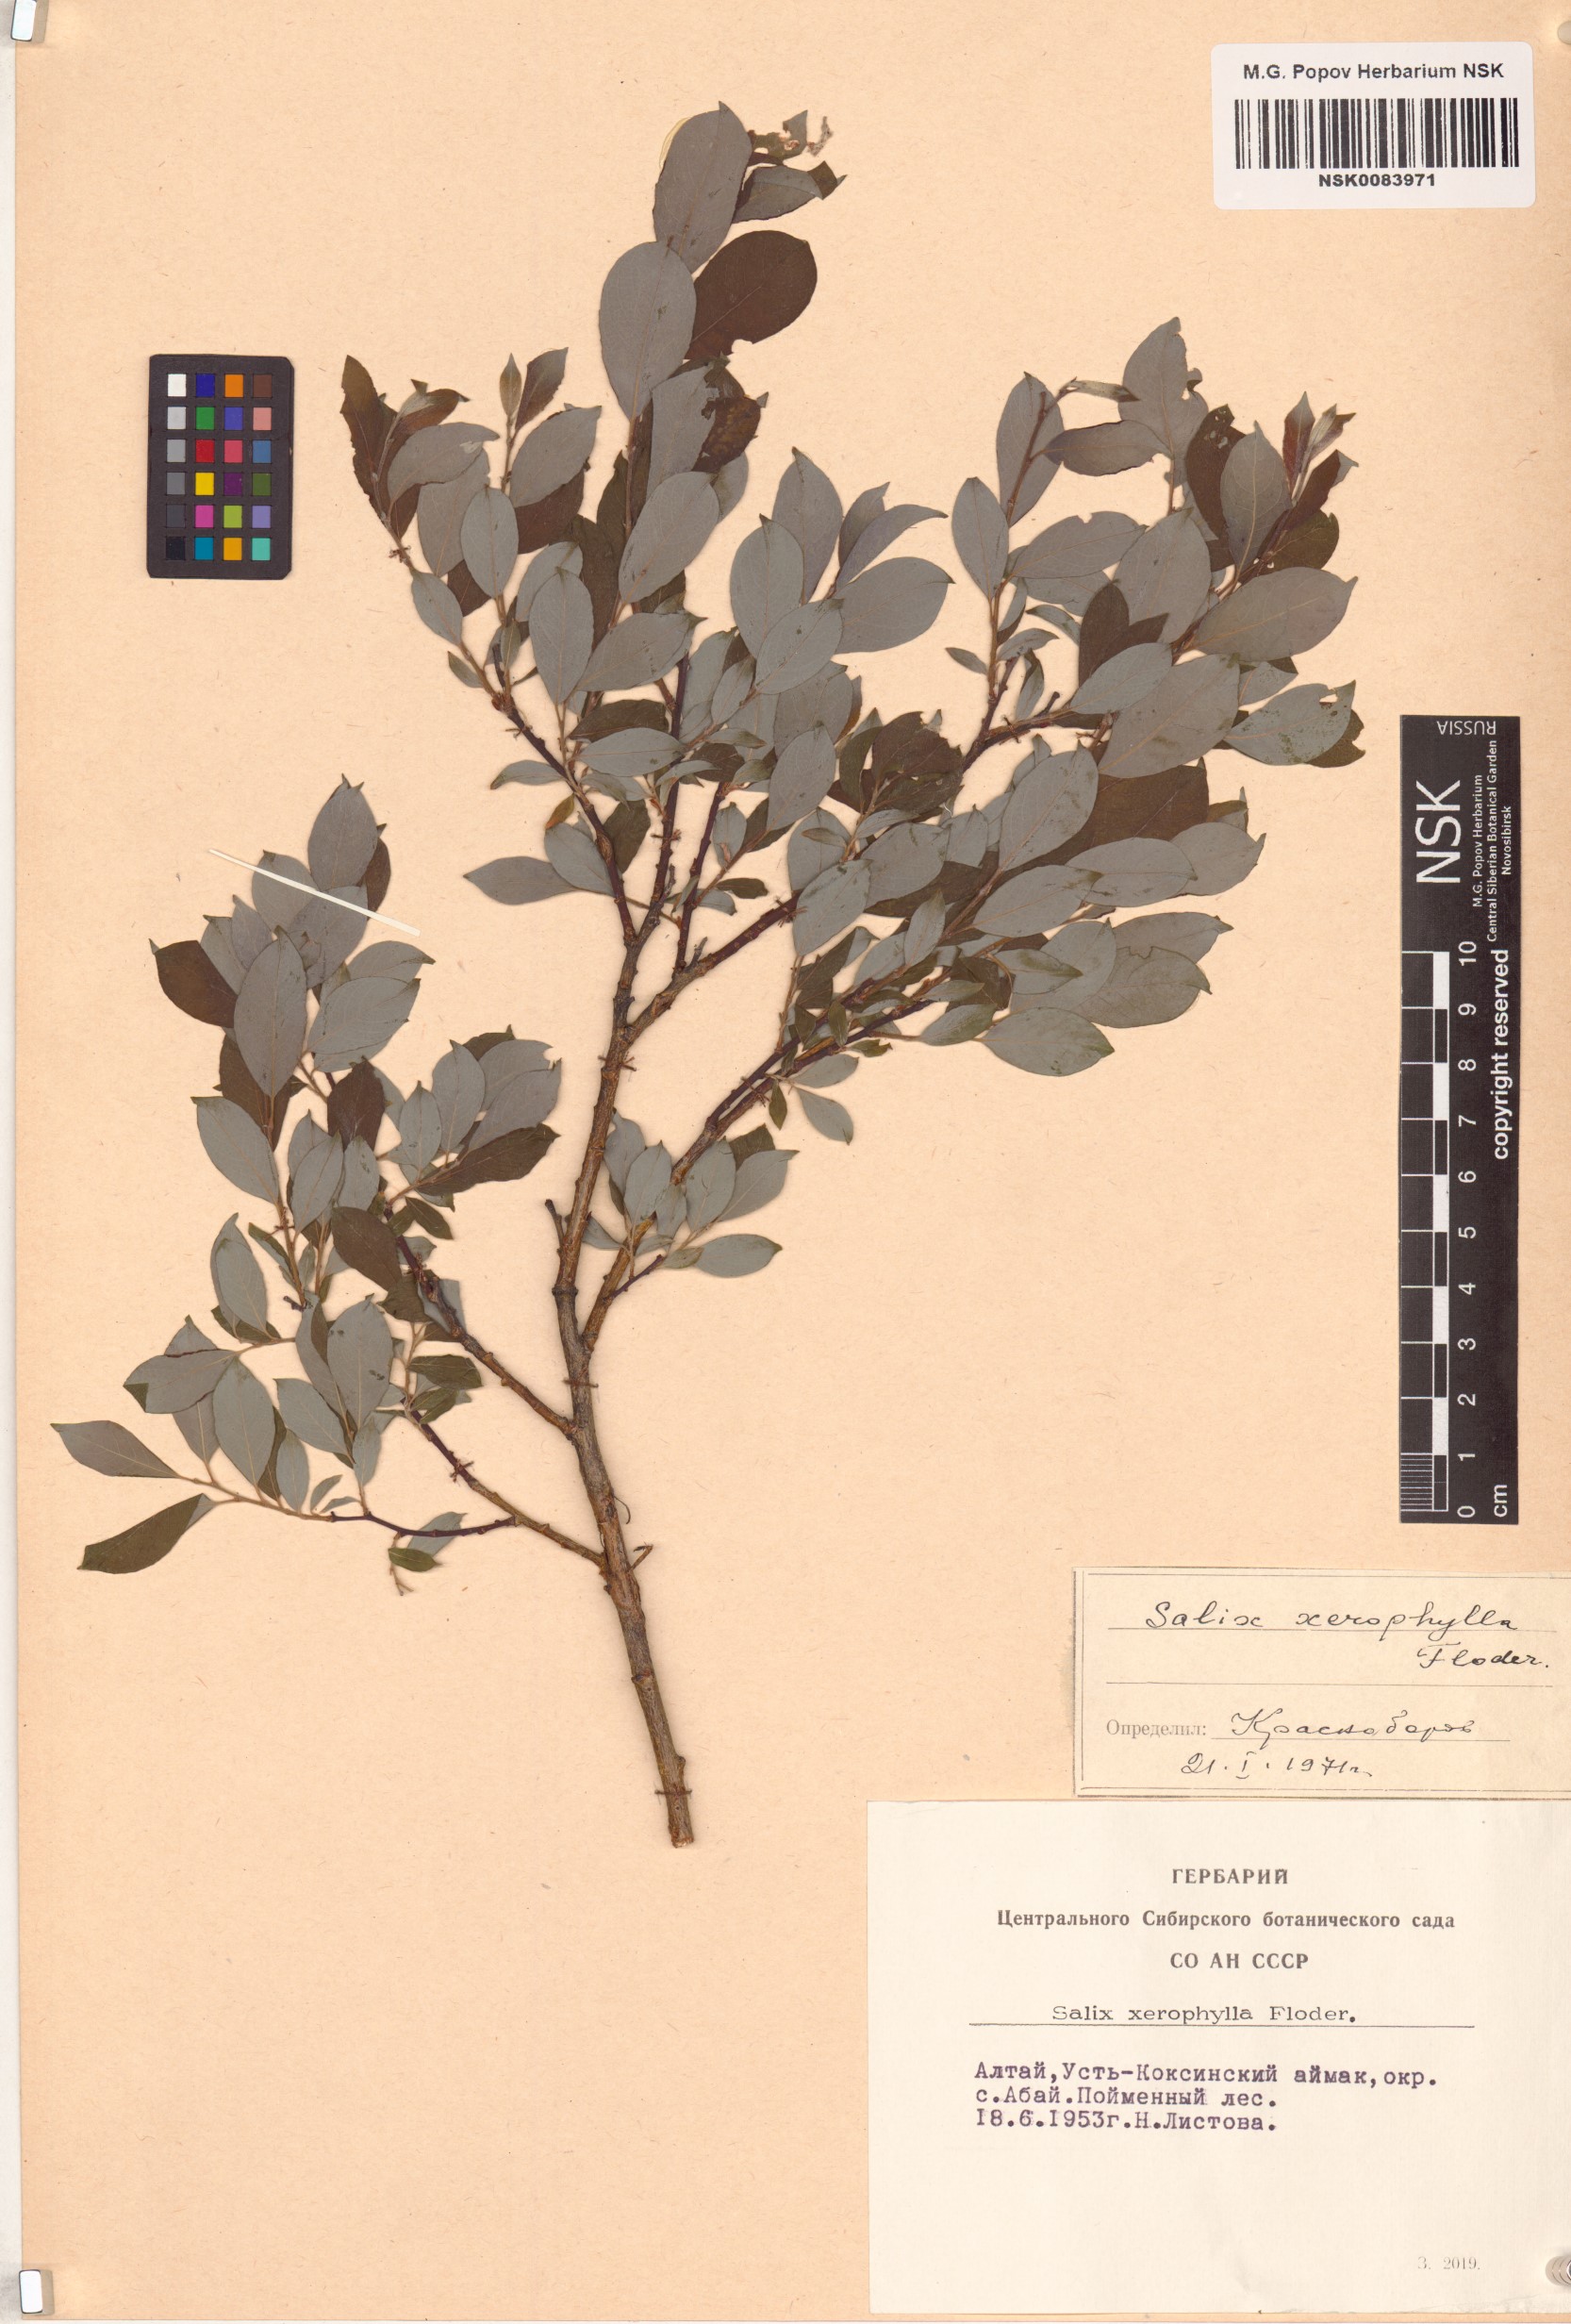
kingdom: Plantae
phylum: Tracheophyta
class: Magnoliopsida
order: Malpighiales
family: Salicaceae
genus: Salix
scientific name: Salix bebbiana
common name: Bebb's willow
